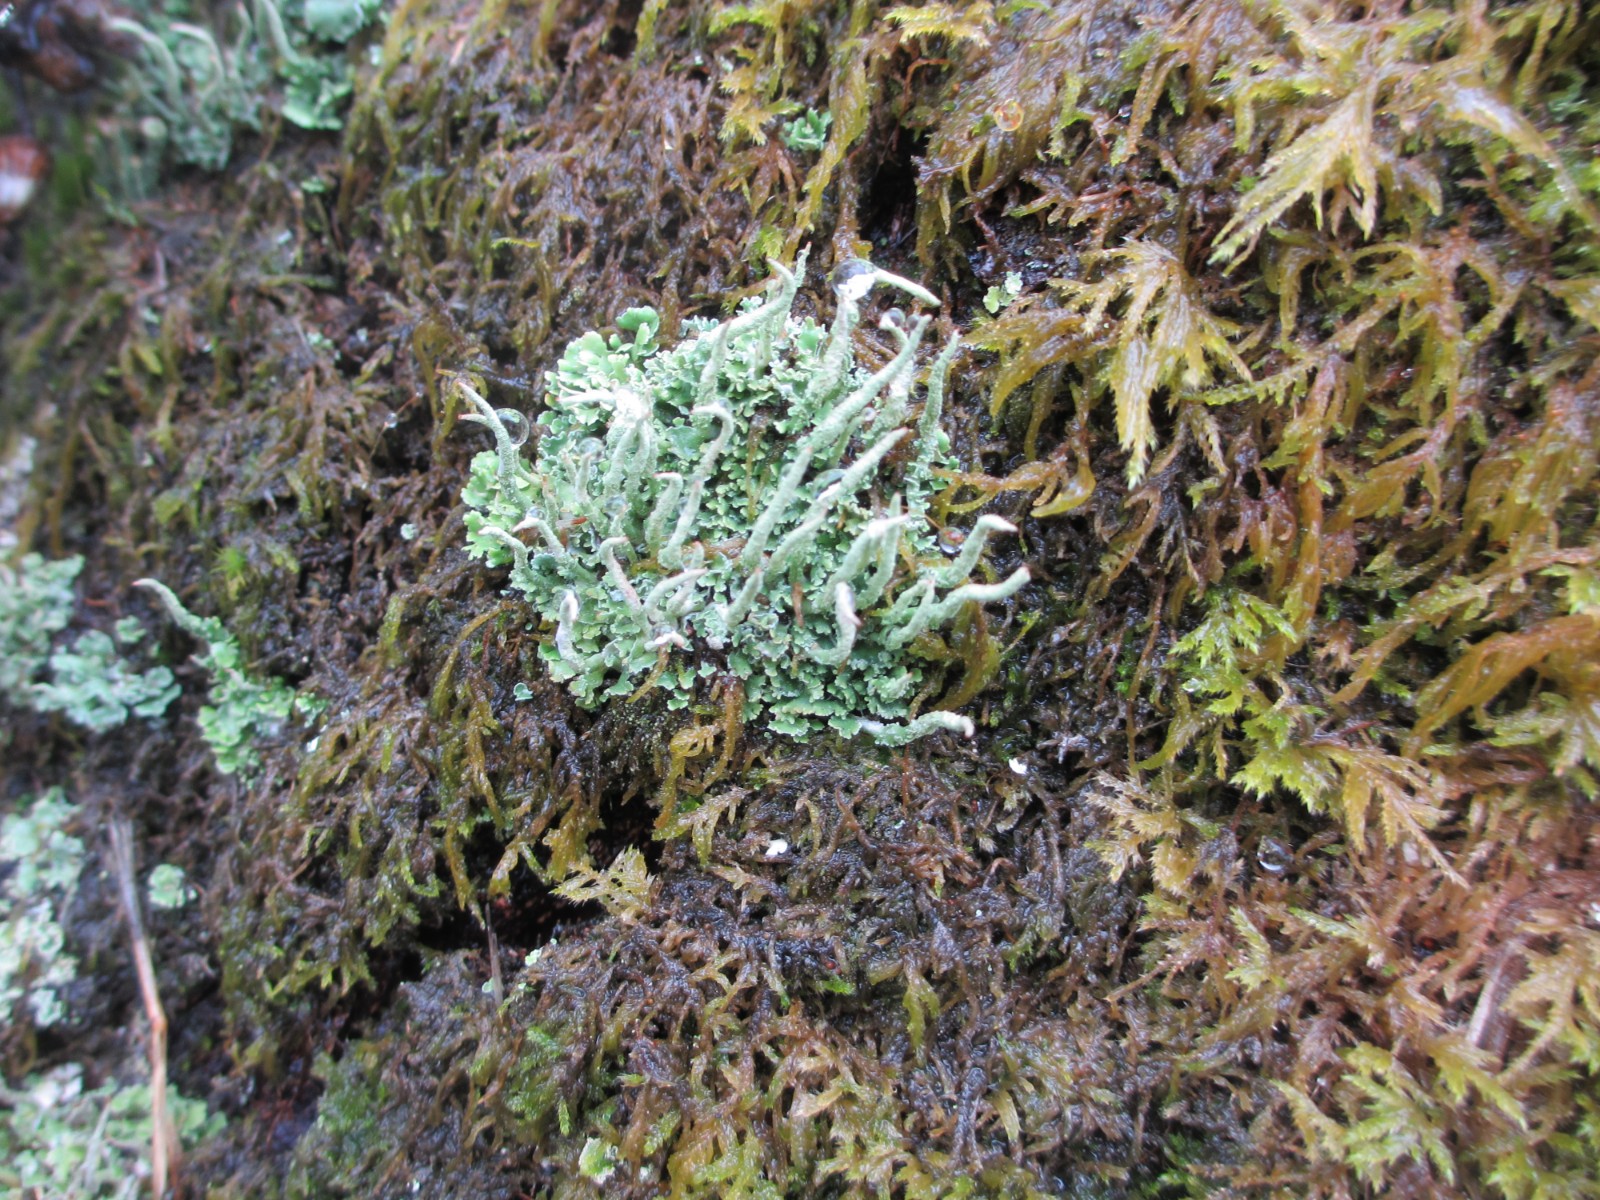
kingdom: Fungi
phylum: Ascomycota
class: Lecanoromycetes
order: Lecanorales
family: Cladoniaceae
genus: Cladonia
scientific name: Cladonia coniocraea
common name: træfods-bægerlav
